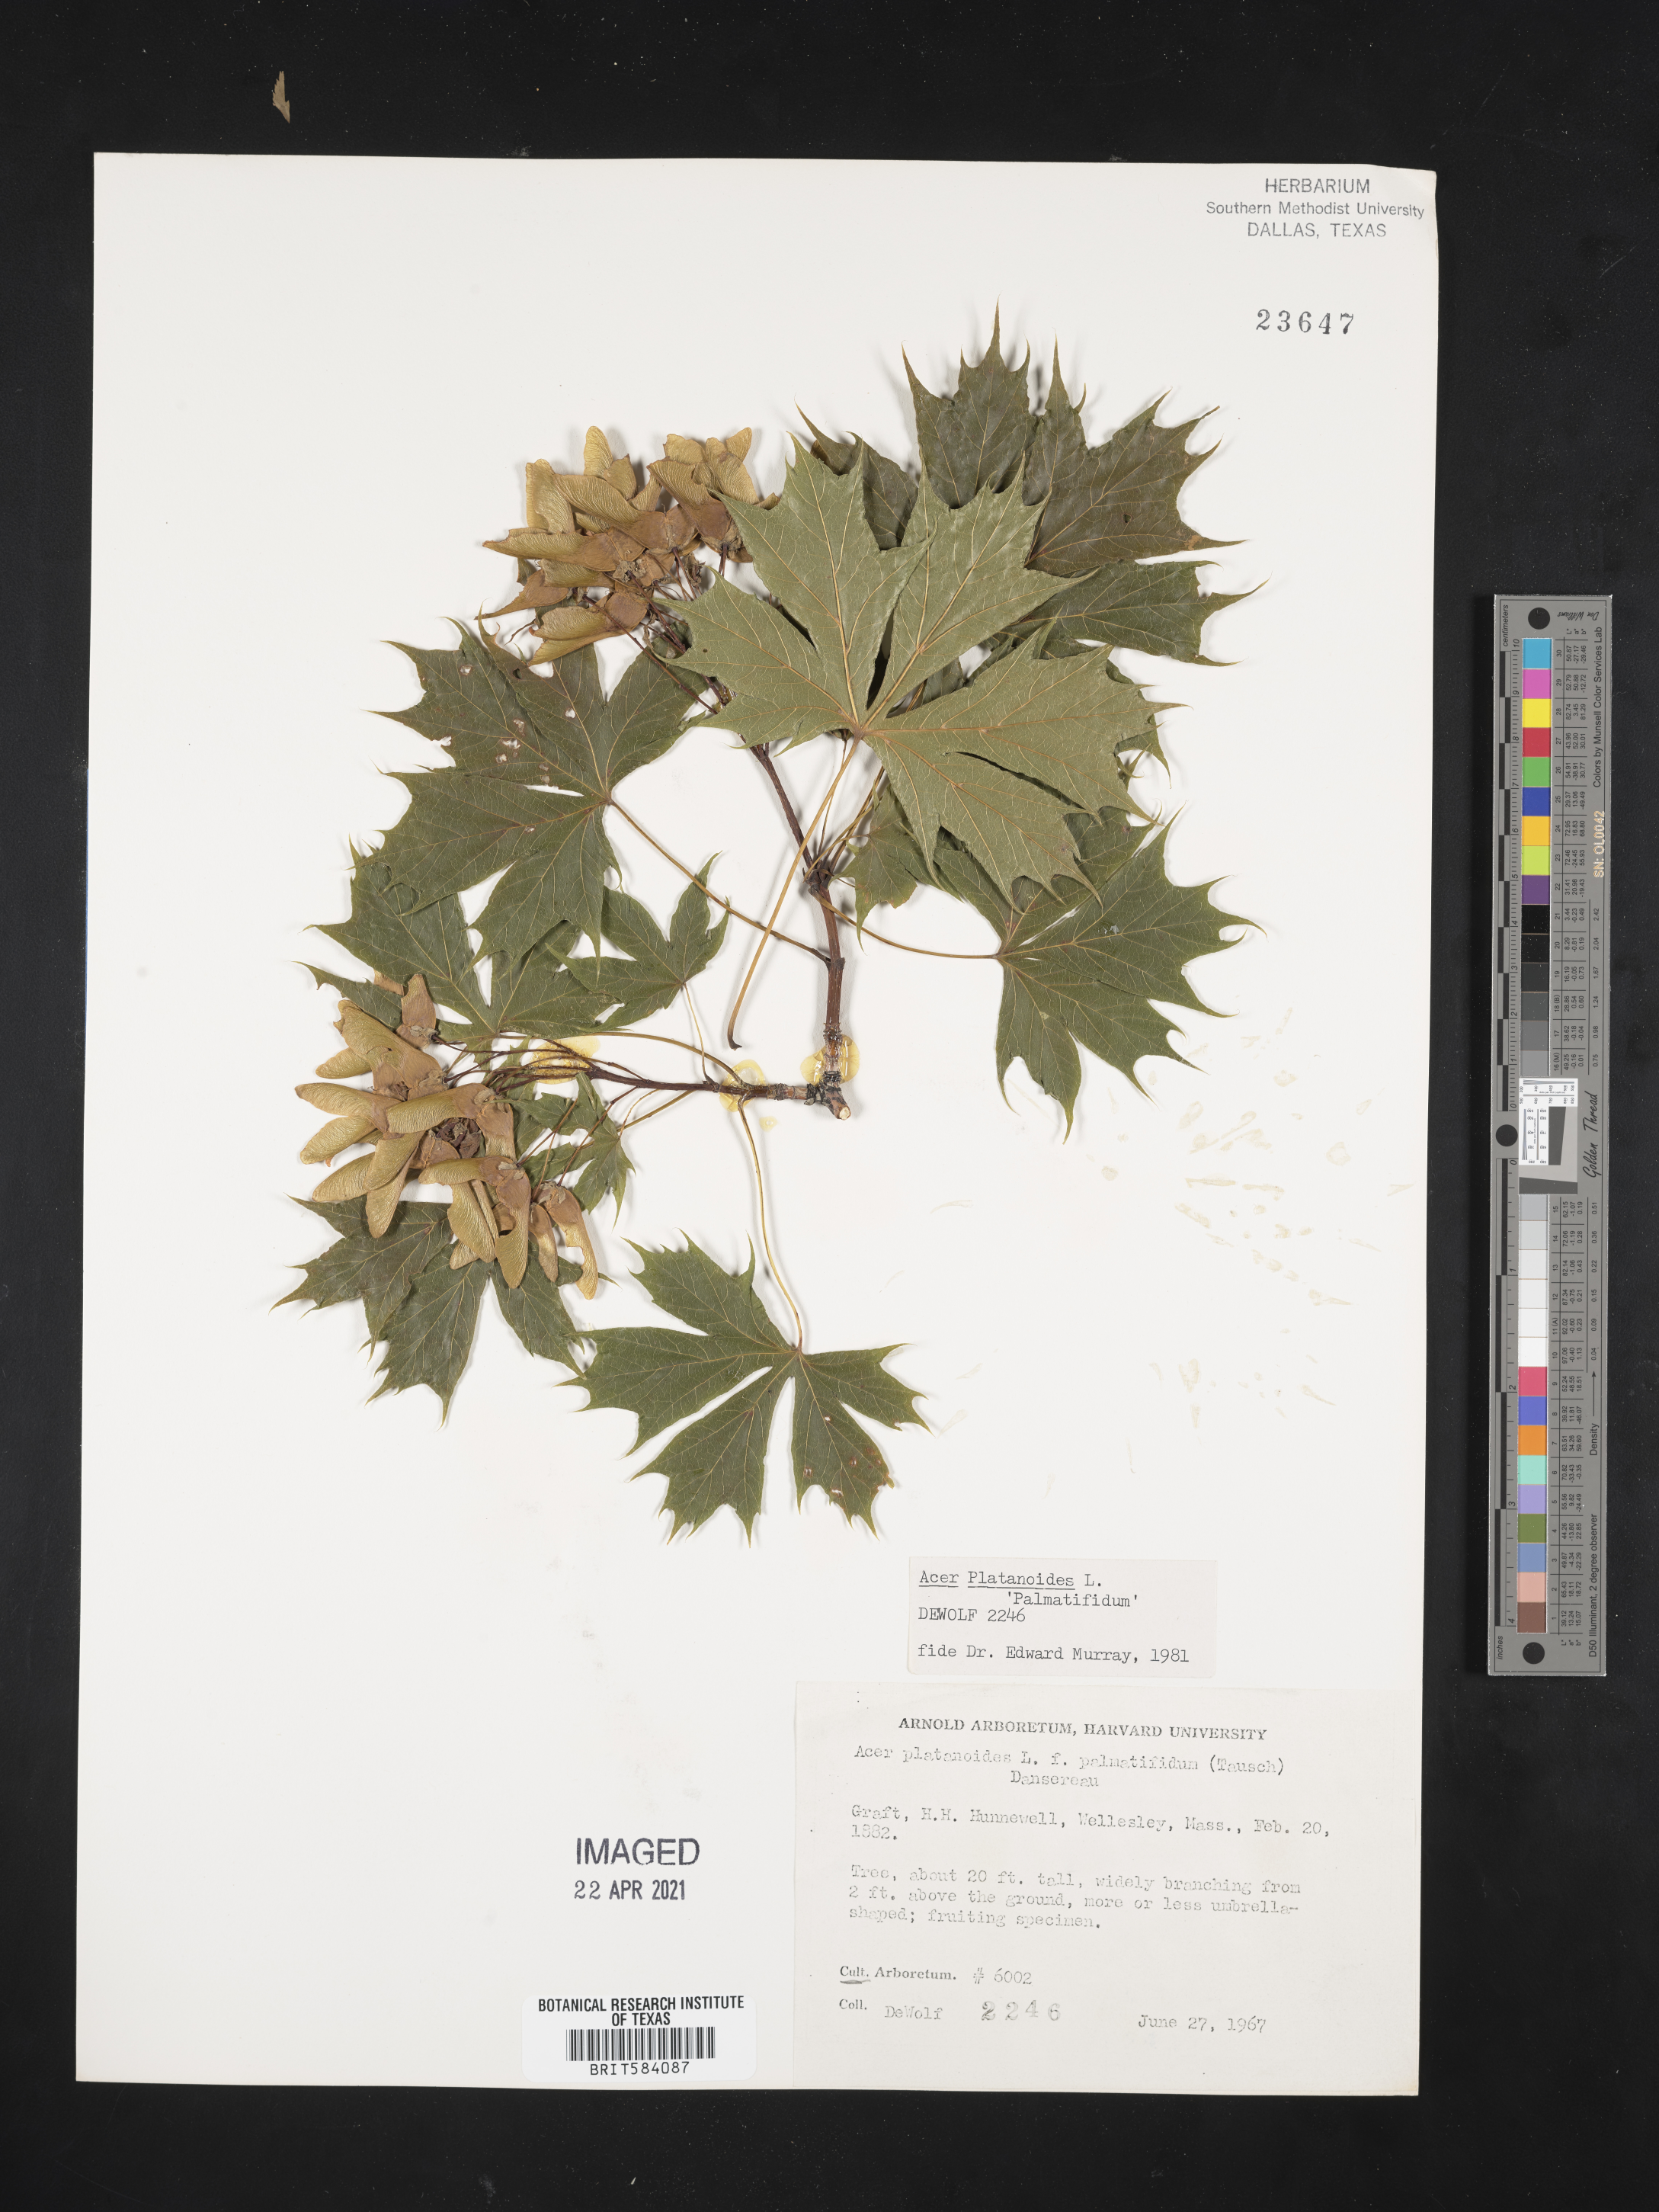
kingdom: Plantae
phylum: Tracheophyta
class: Magnoliopsida
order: Sapindales
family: Sapindaceae
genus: Acer
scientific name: Acer platanoides
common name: Norway maple
